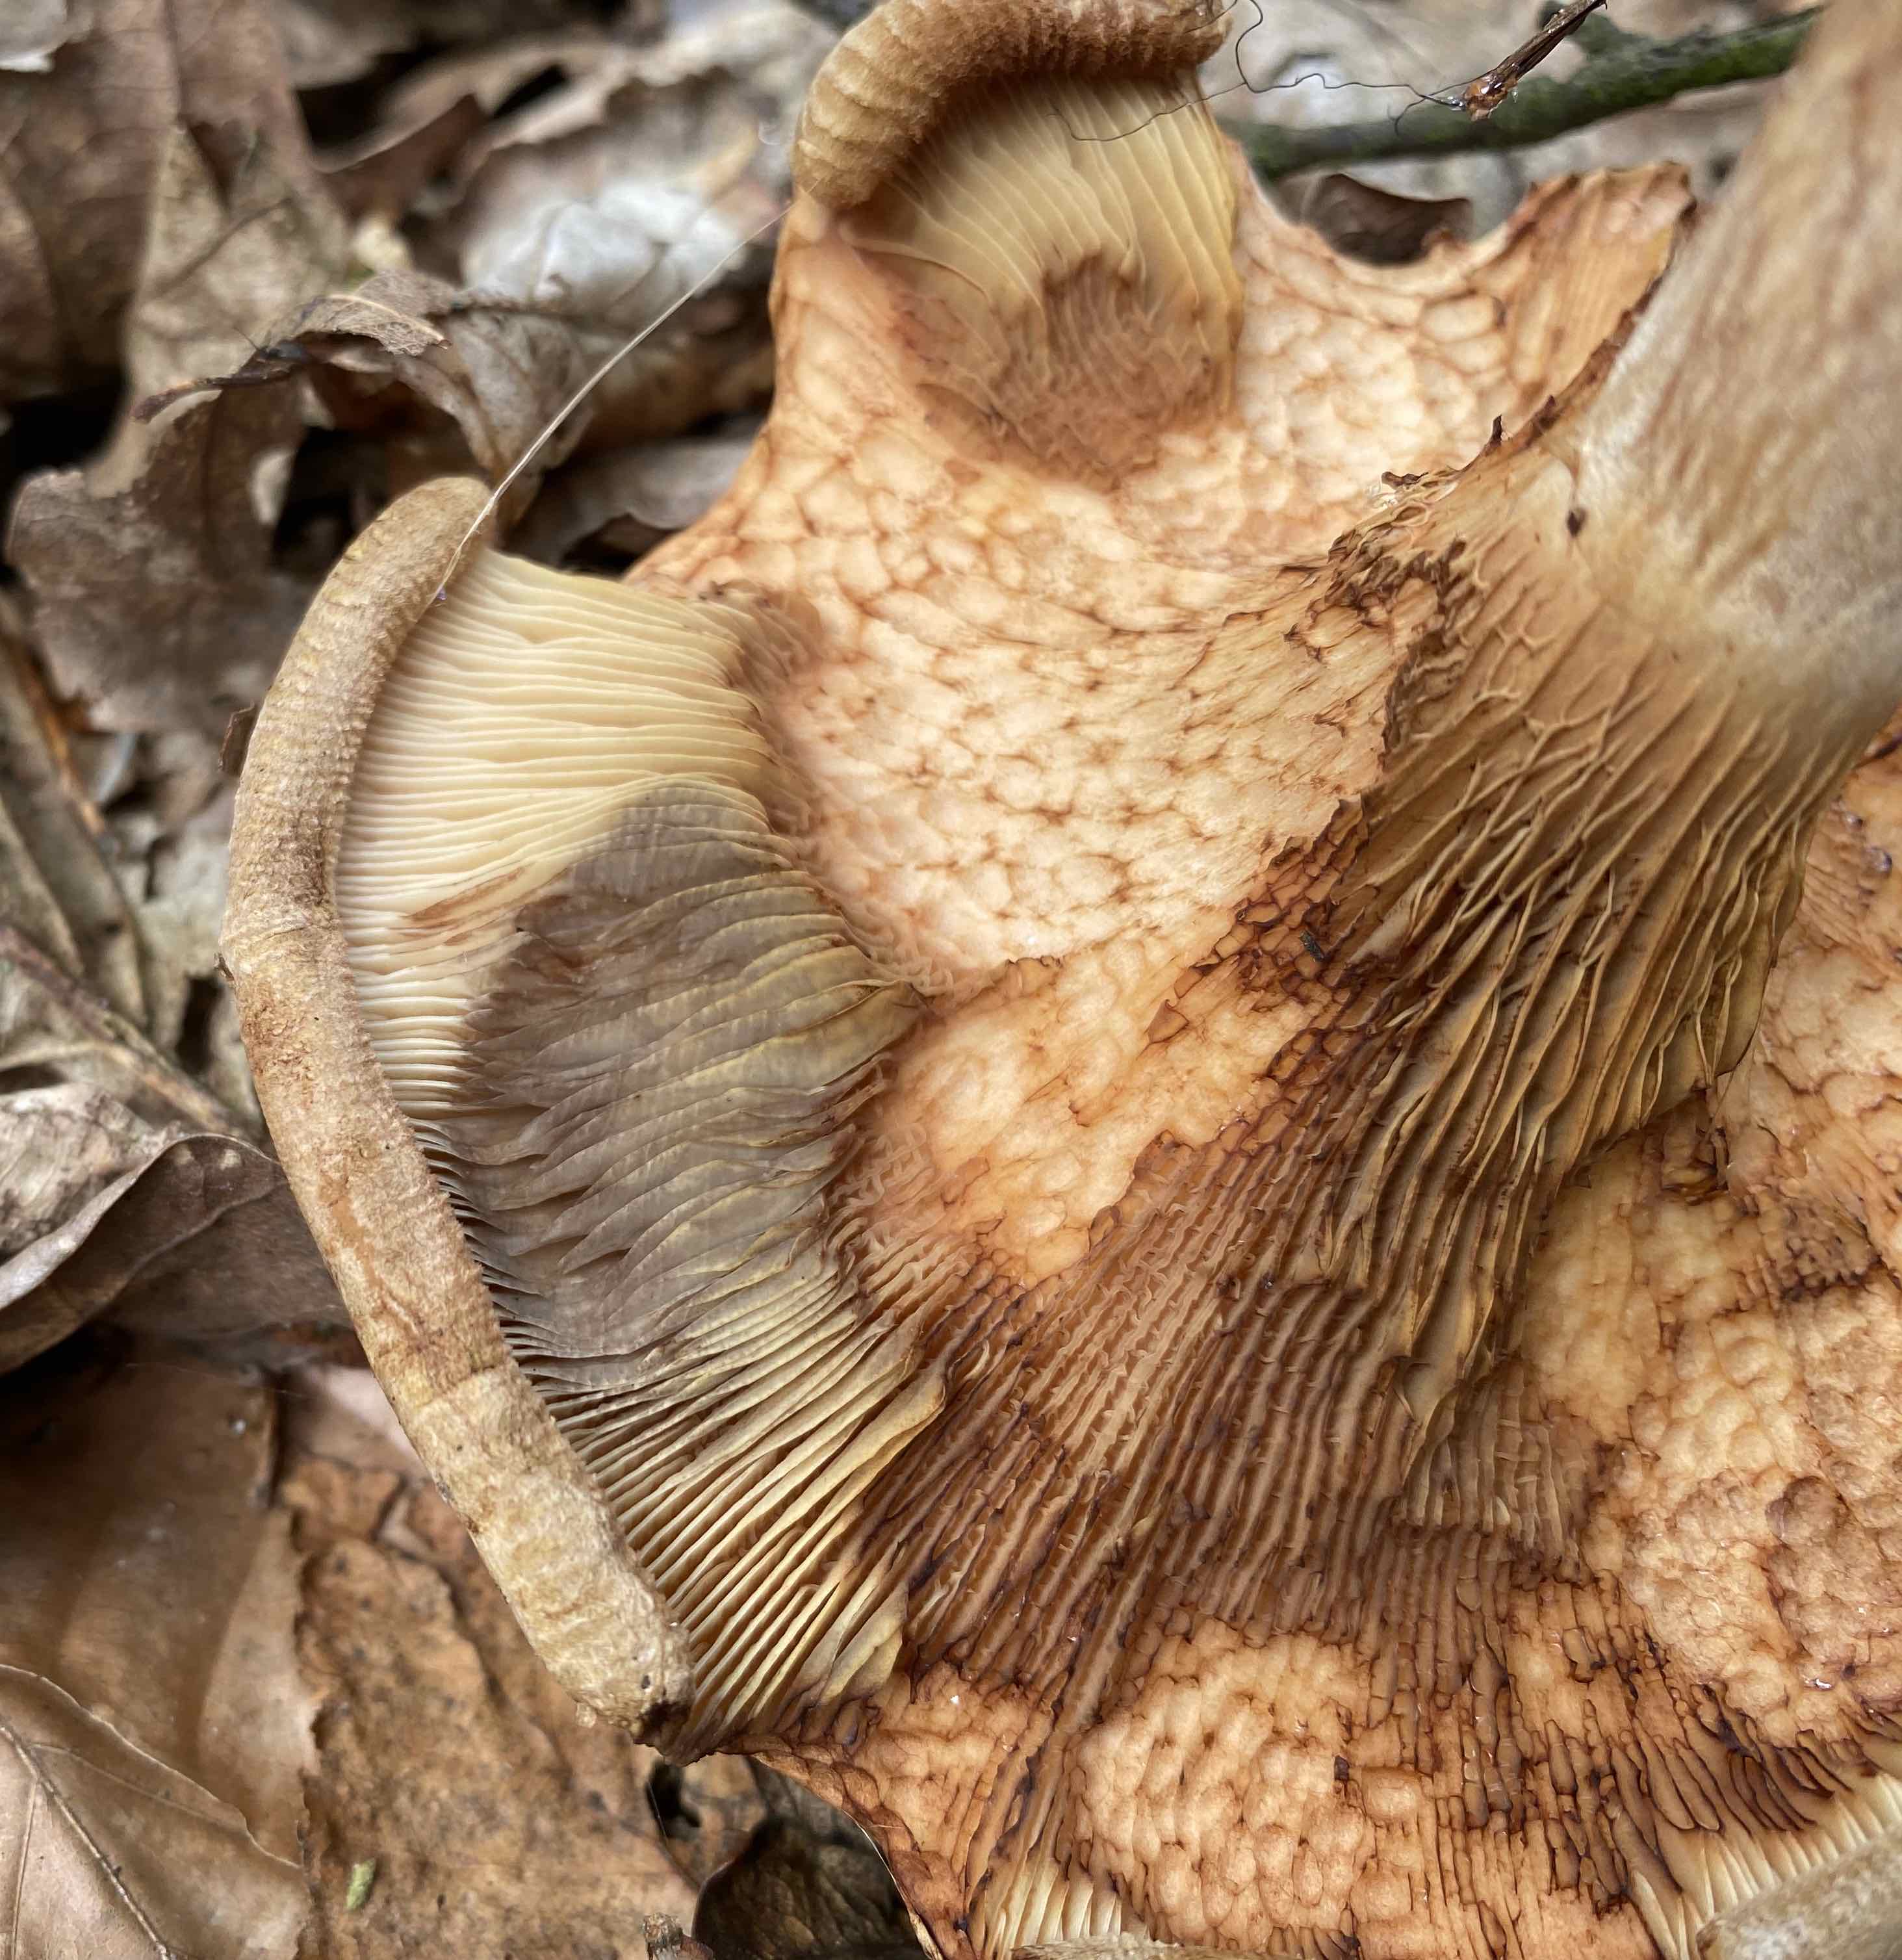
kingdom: Fungi
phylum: Basidiomycota
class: Agaricomycetes
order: Boletales
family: Paxillaceae
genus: Paxillus
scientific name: Paxillus involutus
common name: almindelig netbladhat
